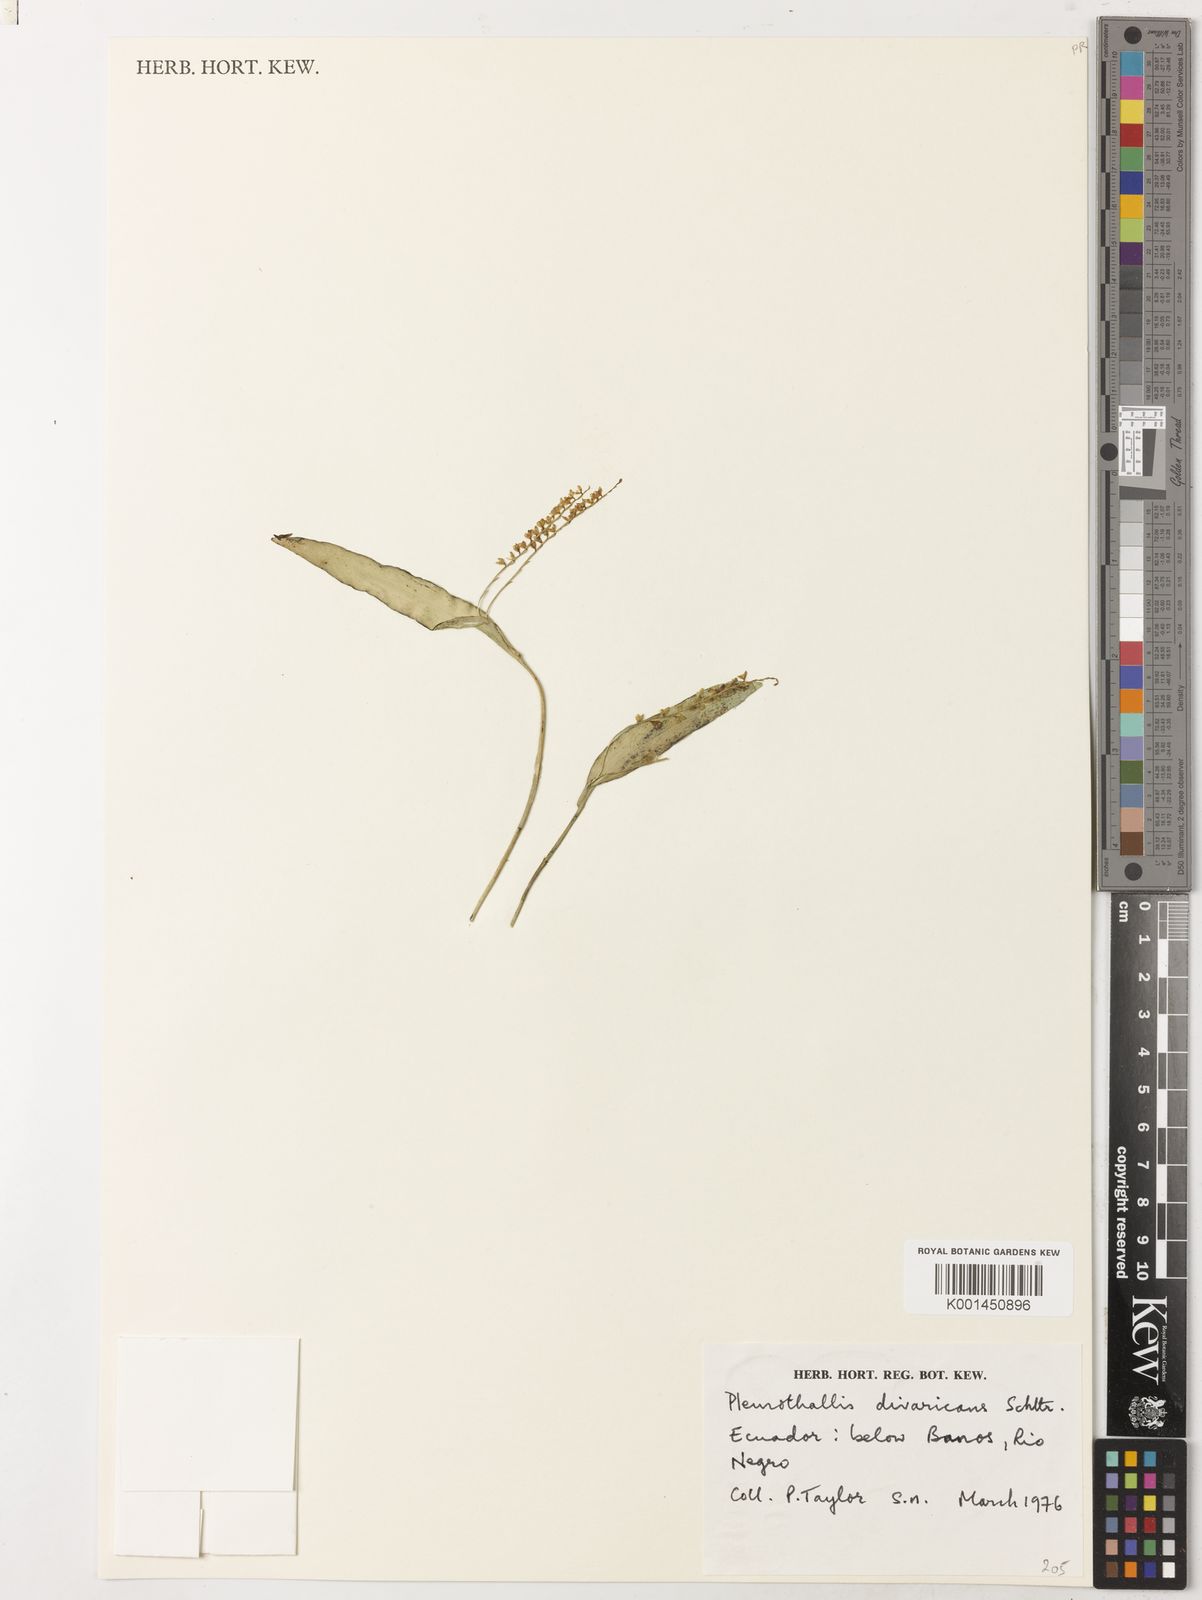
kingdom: Plantae
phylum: Tracheophyta
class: Liliopsida
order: Asparagales
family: Orchidaceae
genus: Pleurothallis
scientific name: Pleurothallis divaricans
